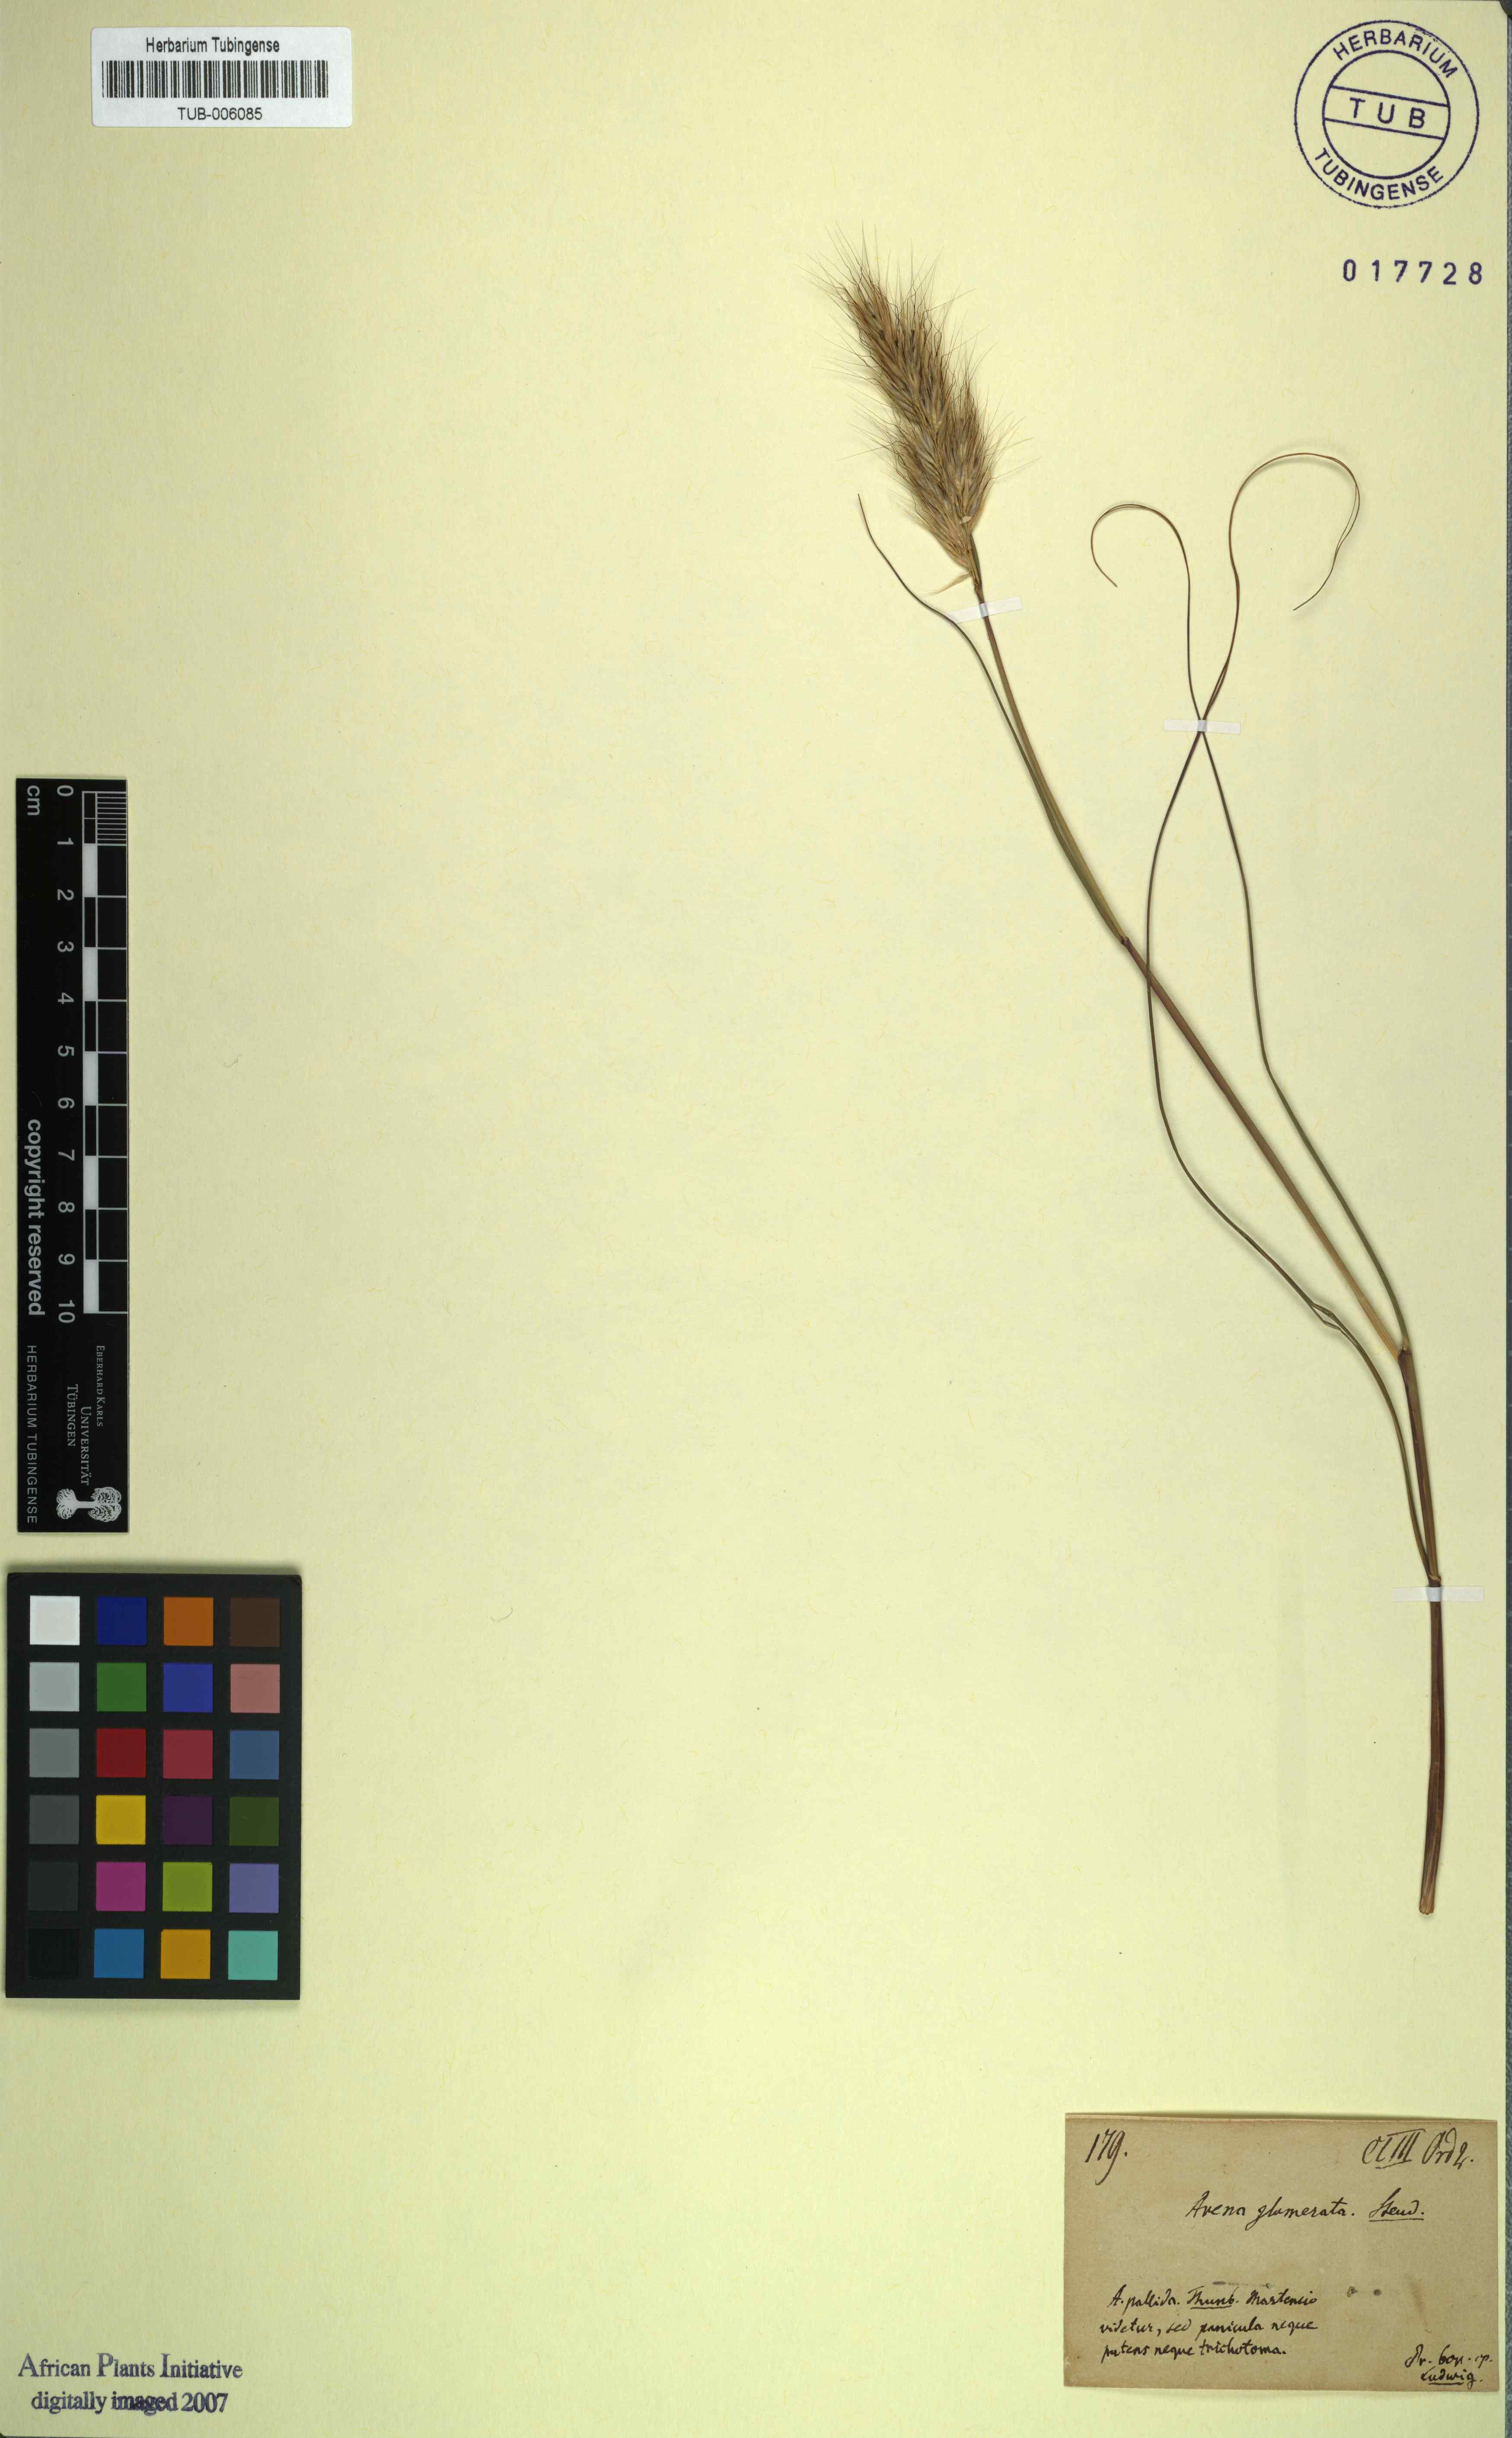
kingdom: Plantae
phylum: Tracheophyta
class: Liliopsida
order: Poales
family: Poaceae
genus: Pentameris
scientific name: Pentameris curvifolia
